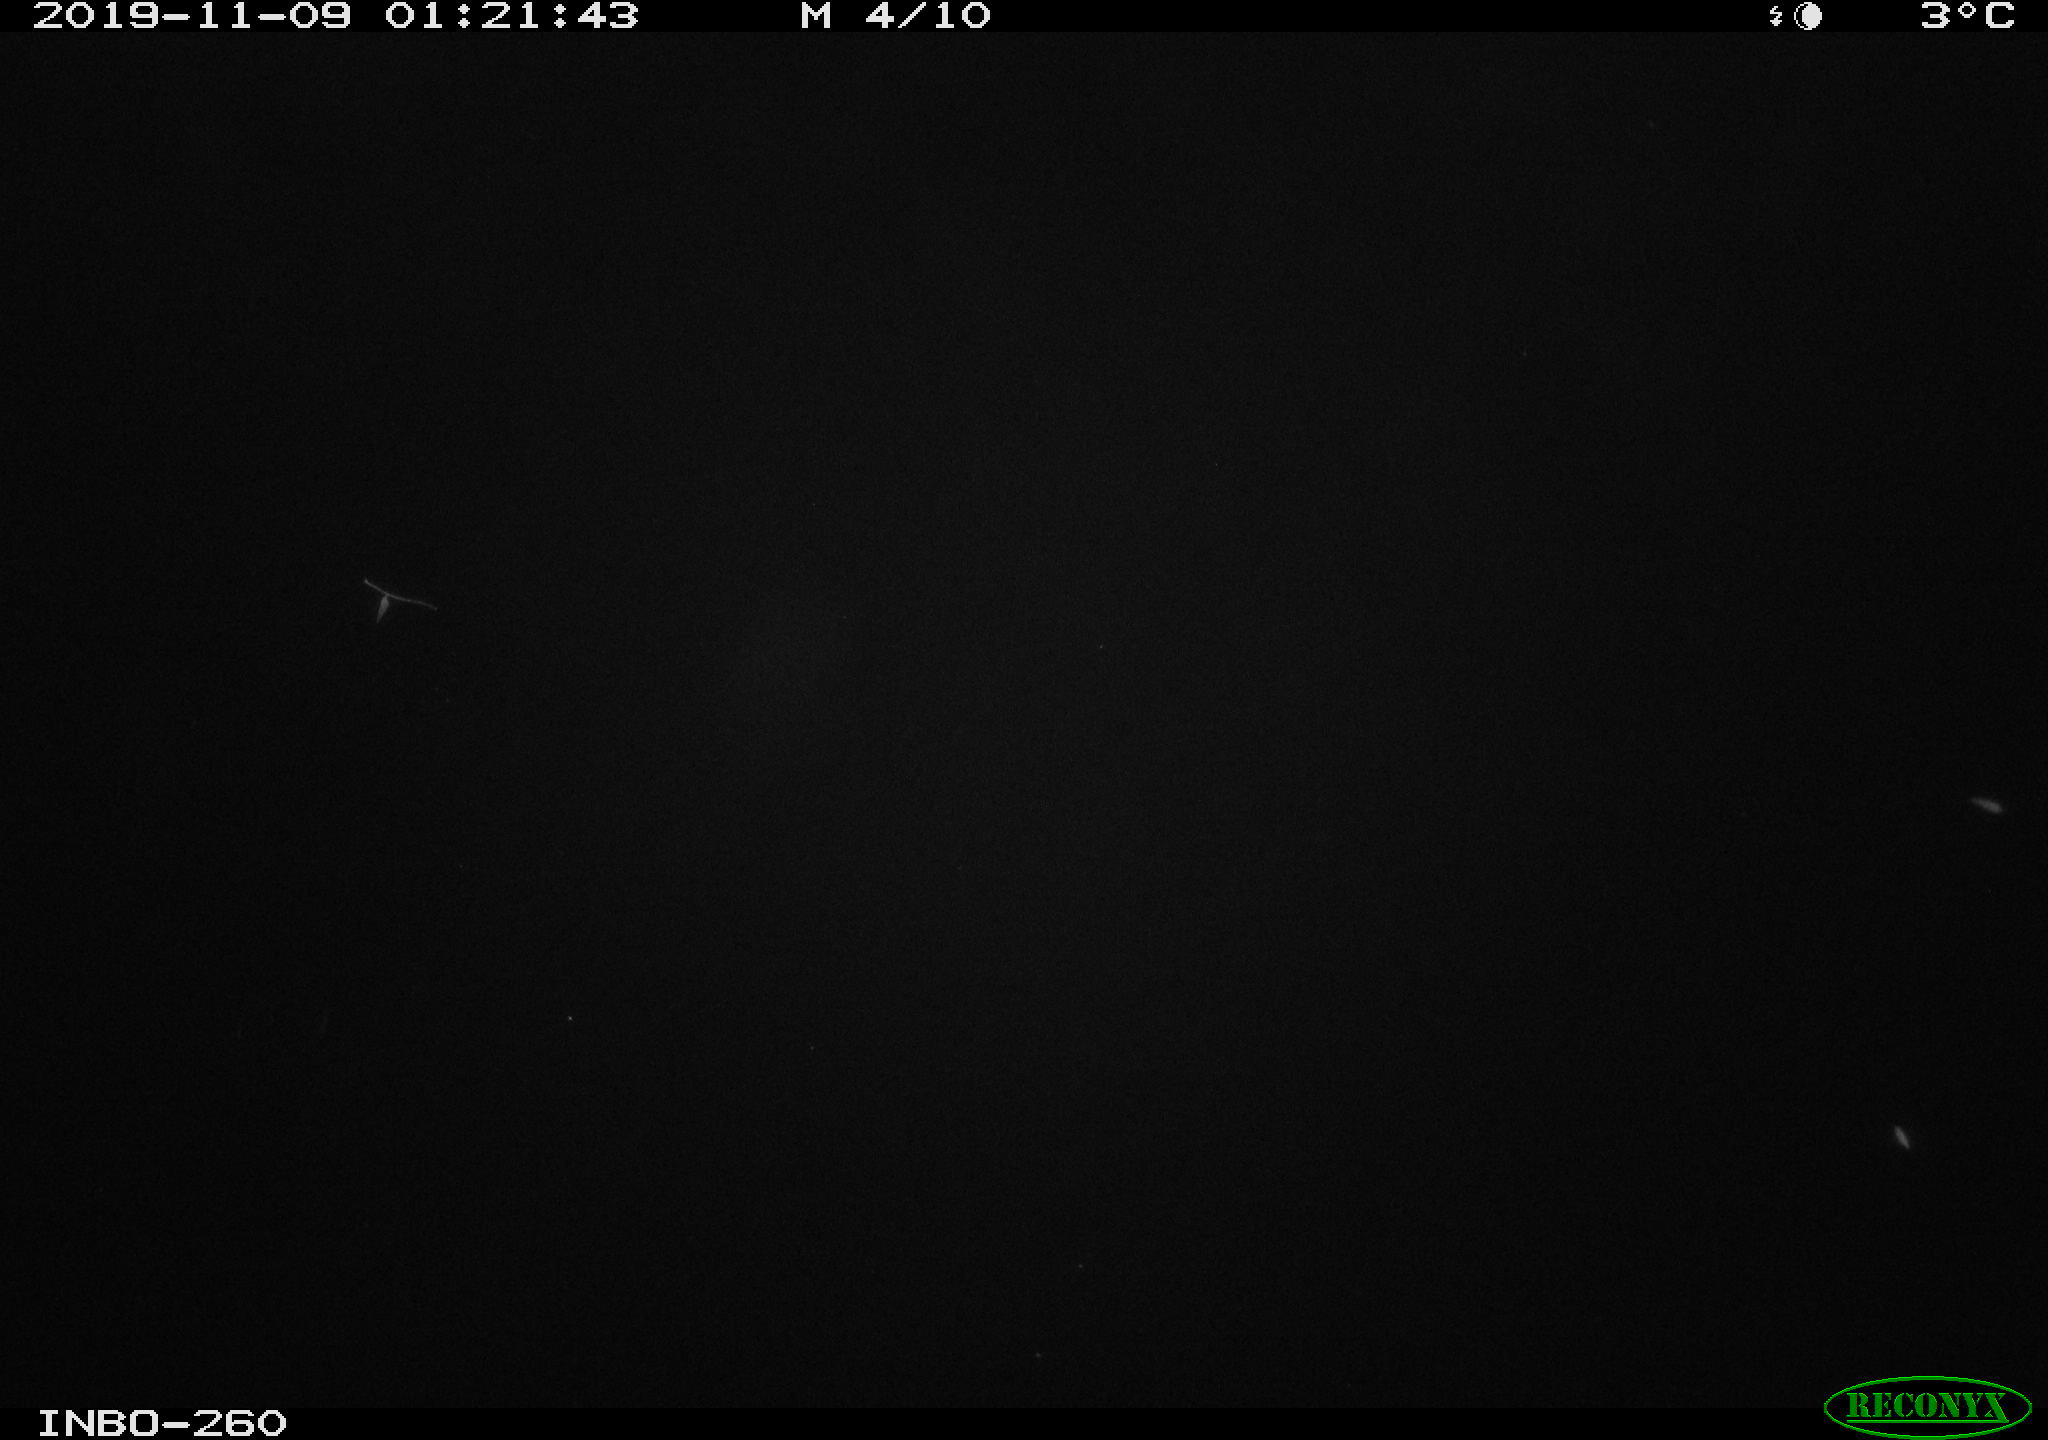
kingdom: Animalia
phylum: Chordata
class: Aves
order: Anseriformes
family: Anatidae
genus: Anas
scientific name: Anas platyrhynchos
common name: Mallard
